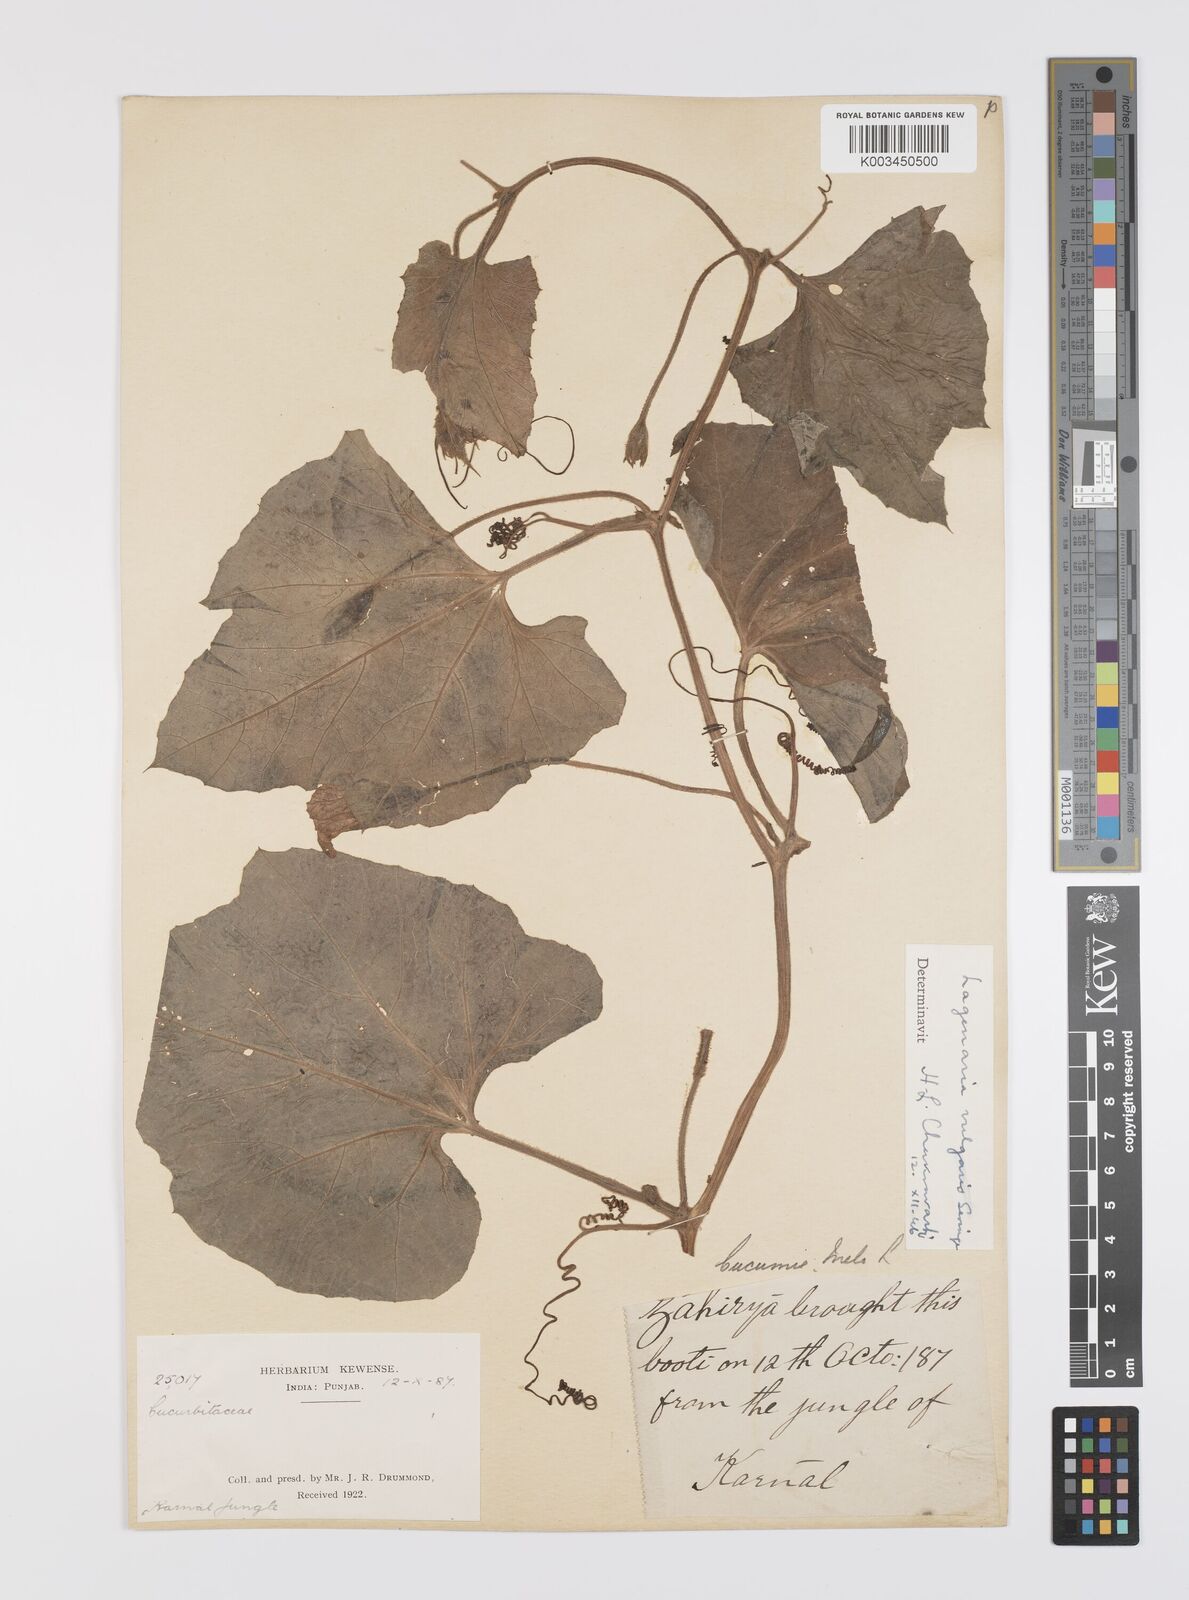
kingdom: Plantae
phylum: Tracheophyta
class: Magnoliopsida
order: Cucurbitales
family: Cucurbitaceae
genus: Lagenaria
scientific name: Lagenaria siceraria
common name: Bottle gourd
